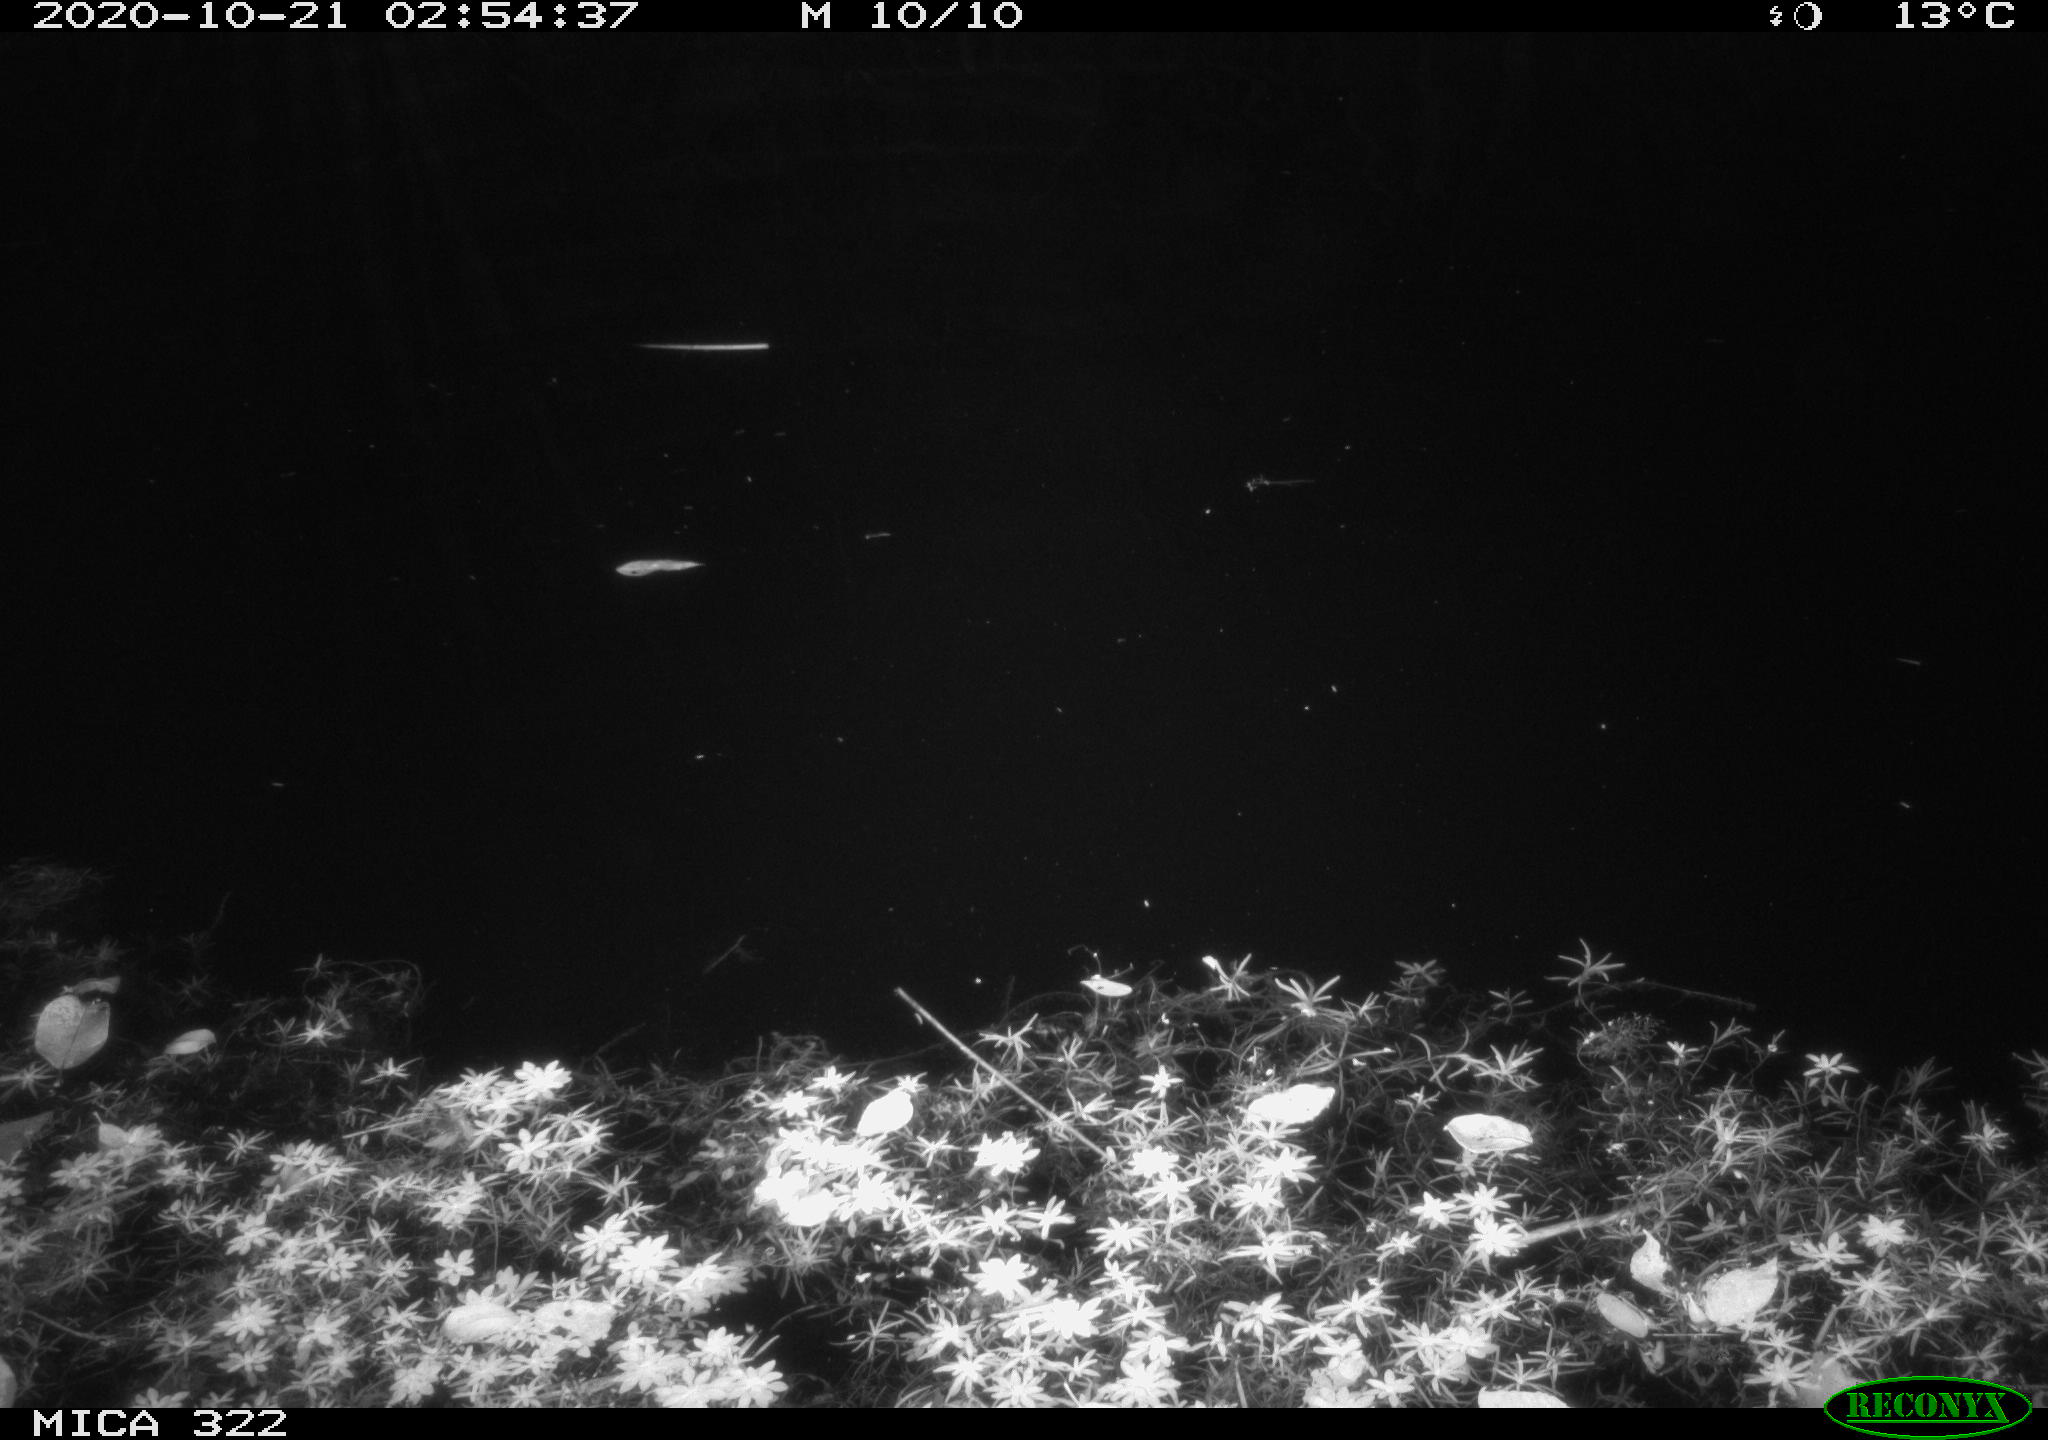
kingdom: Animalia
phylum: Chordata
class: Mammalia
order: Rodentia
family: Muridae
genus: Rattus
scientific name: Rattus norvegicus
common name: Brown rat
